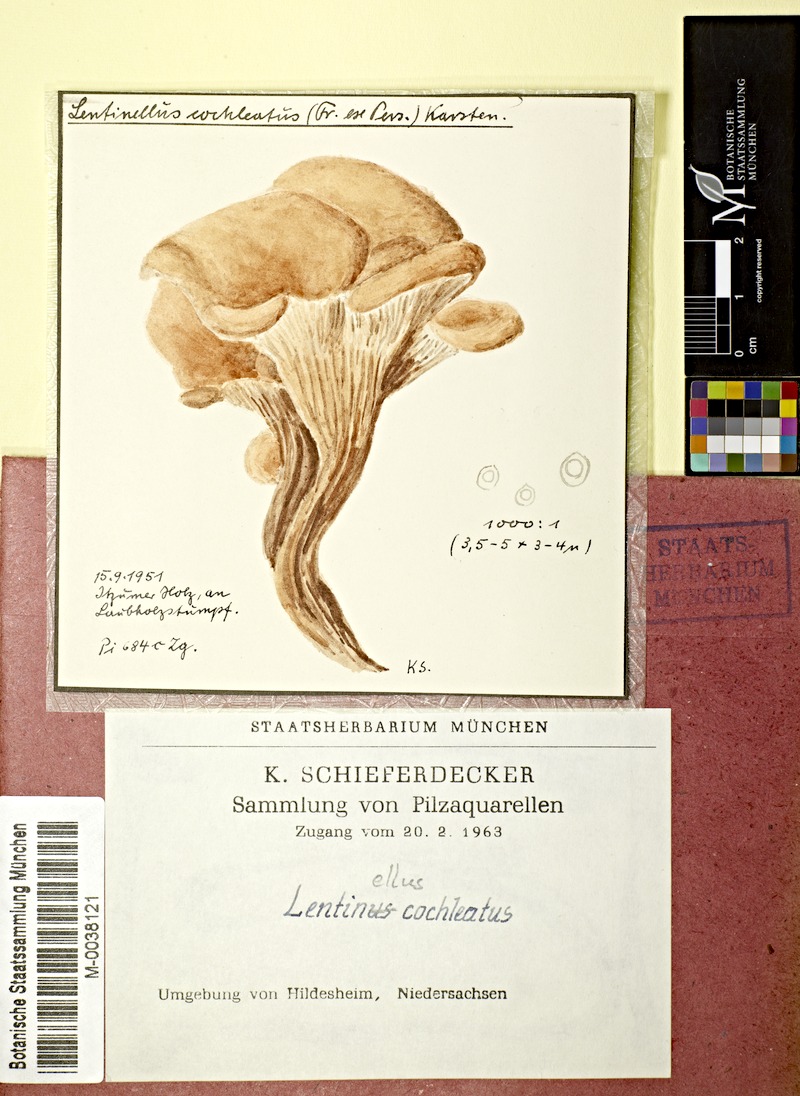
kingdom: Fungi
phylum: Basidiomycota
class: Agaricomycetes
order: Russulales
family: Auriscalpiaceae
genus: Lentinellus
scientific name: Lentinellus cochleatus
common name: Aniseed cockleshell
